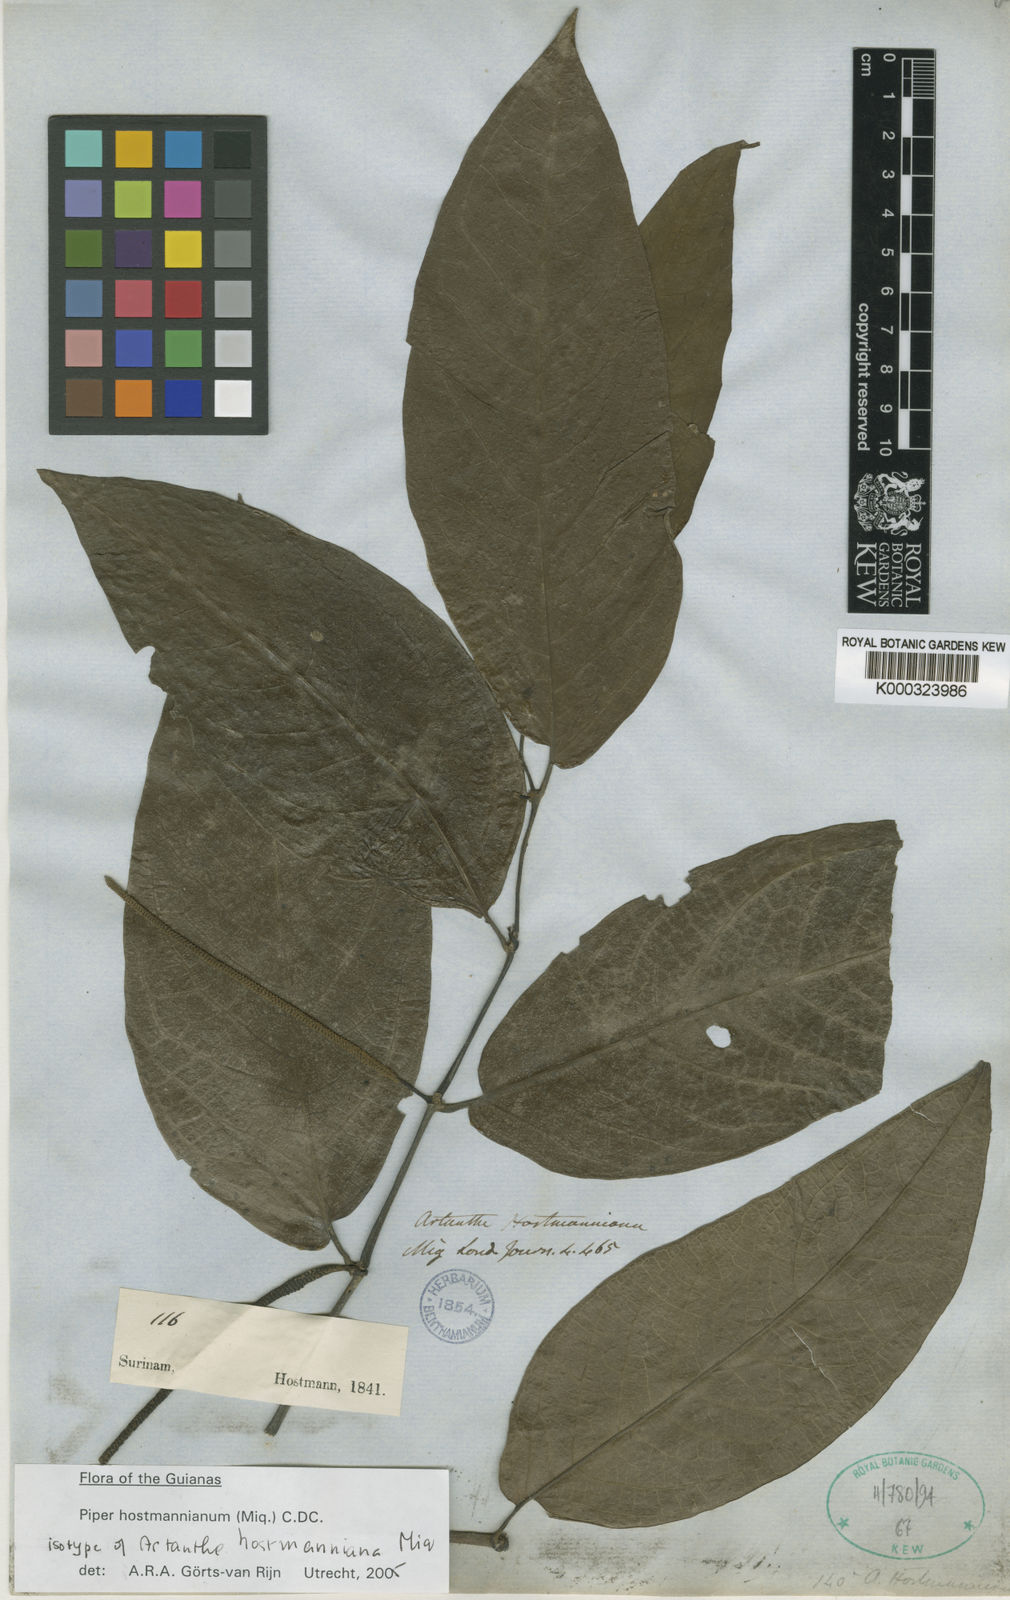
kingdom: Plantae
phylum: Tracheophyta
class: Magnoliopsida
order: Piperales
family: Piperaceae
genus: Piper
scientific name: Piper hostmannianum
